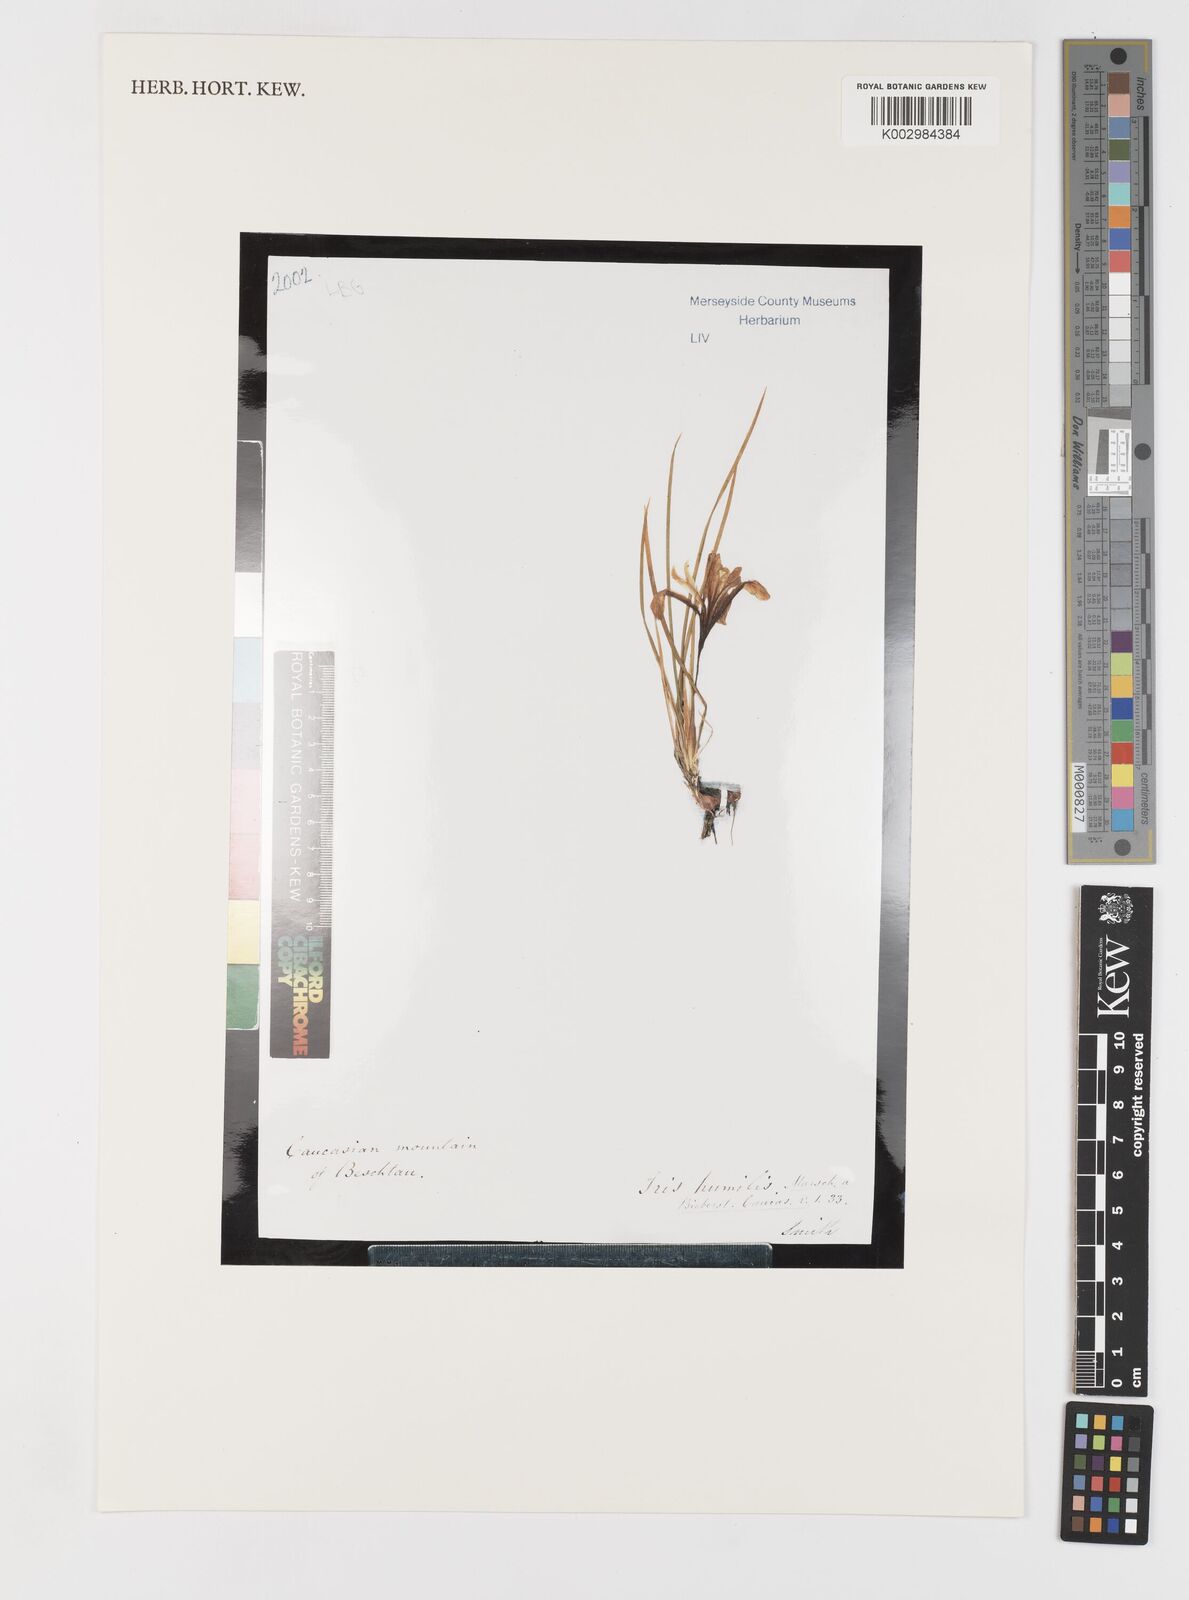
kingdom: Plantae
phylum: Tracheophyta
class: Liliopsida
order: Asparagales
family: Iridaceae
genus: Iris
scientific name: Iris pontica
